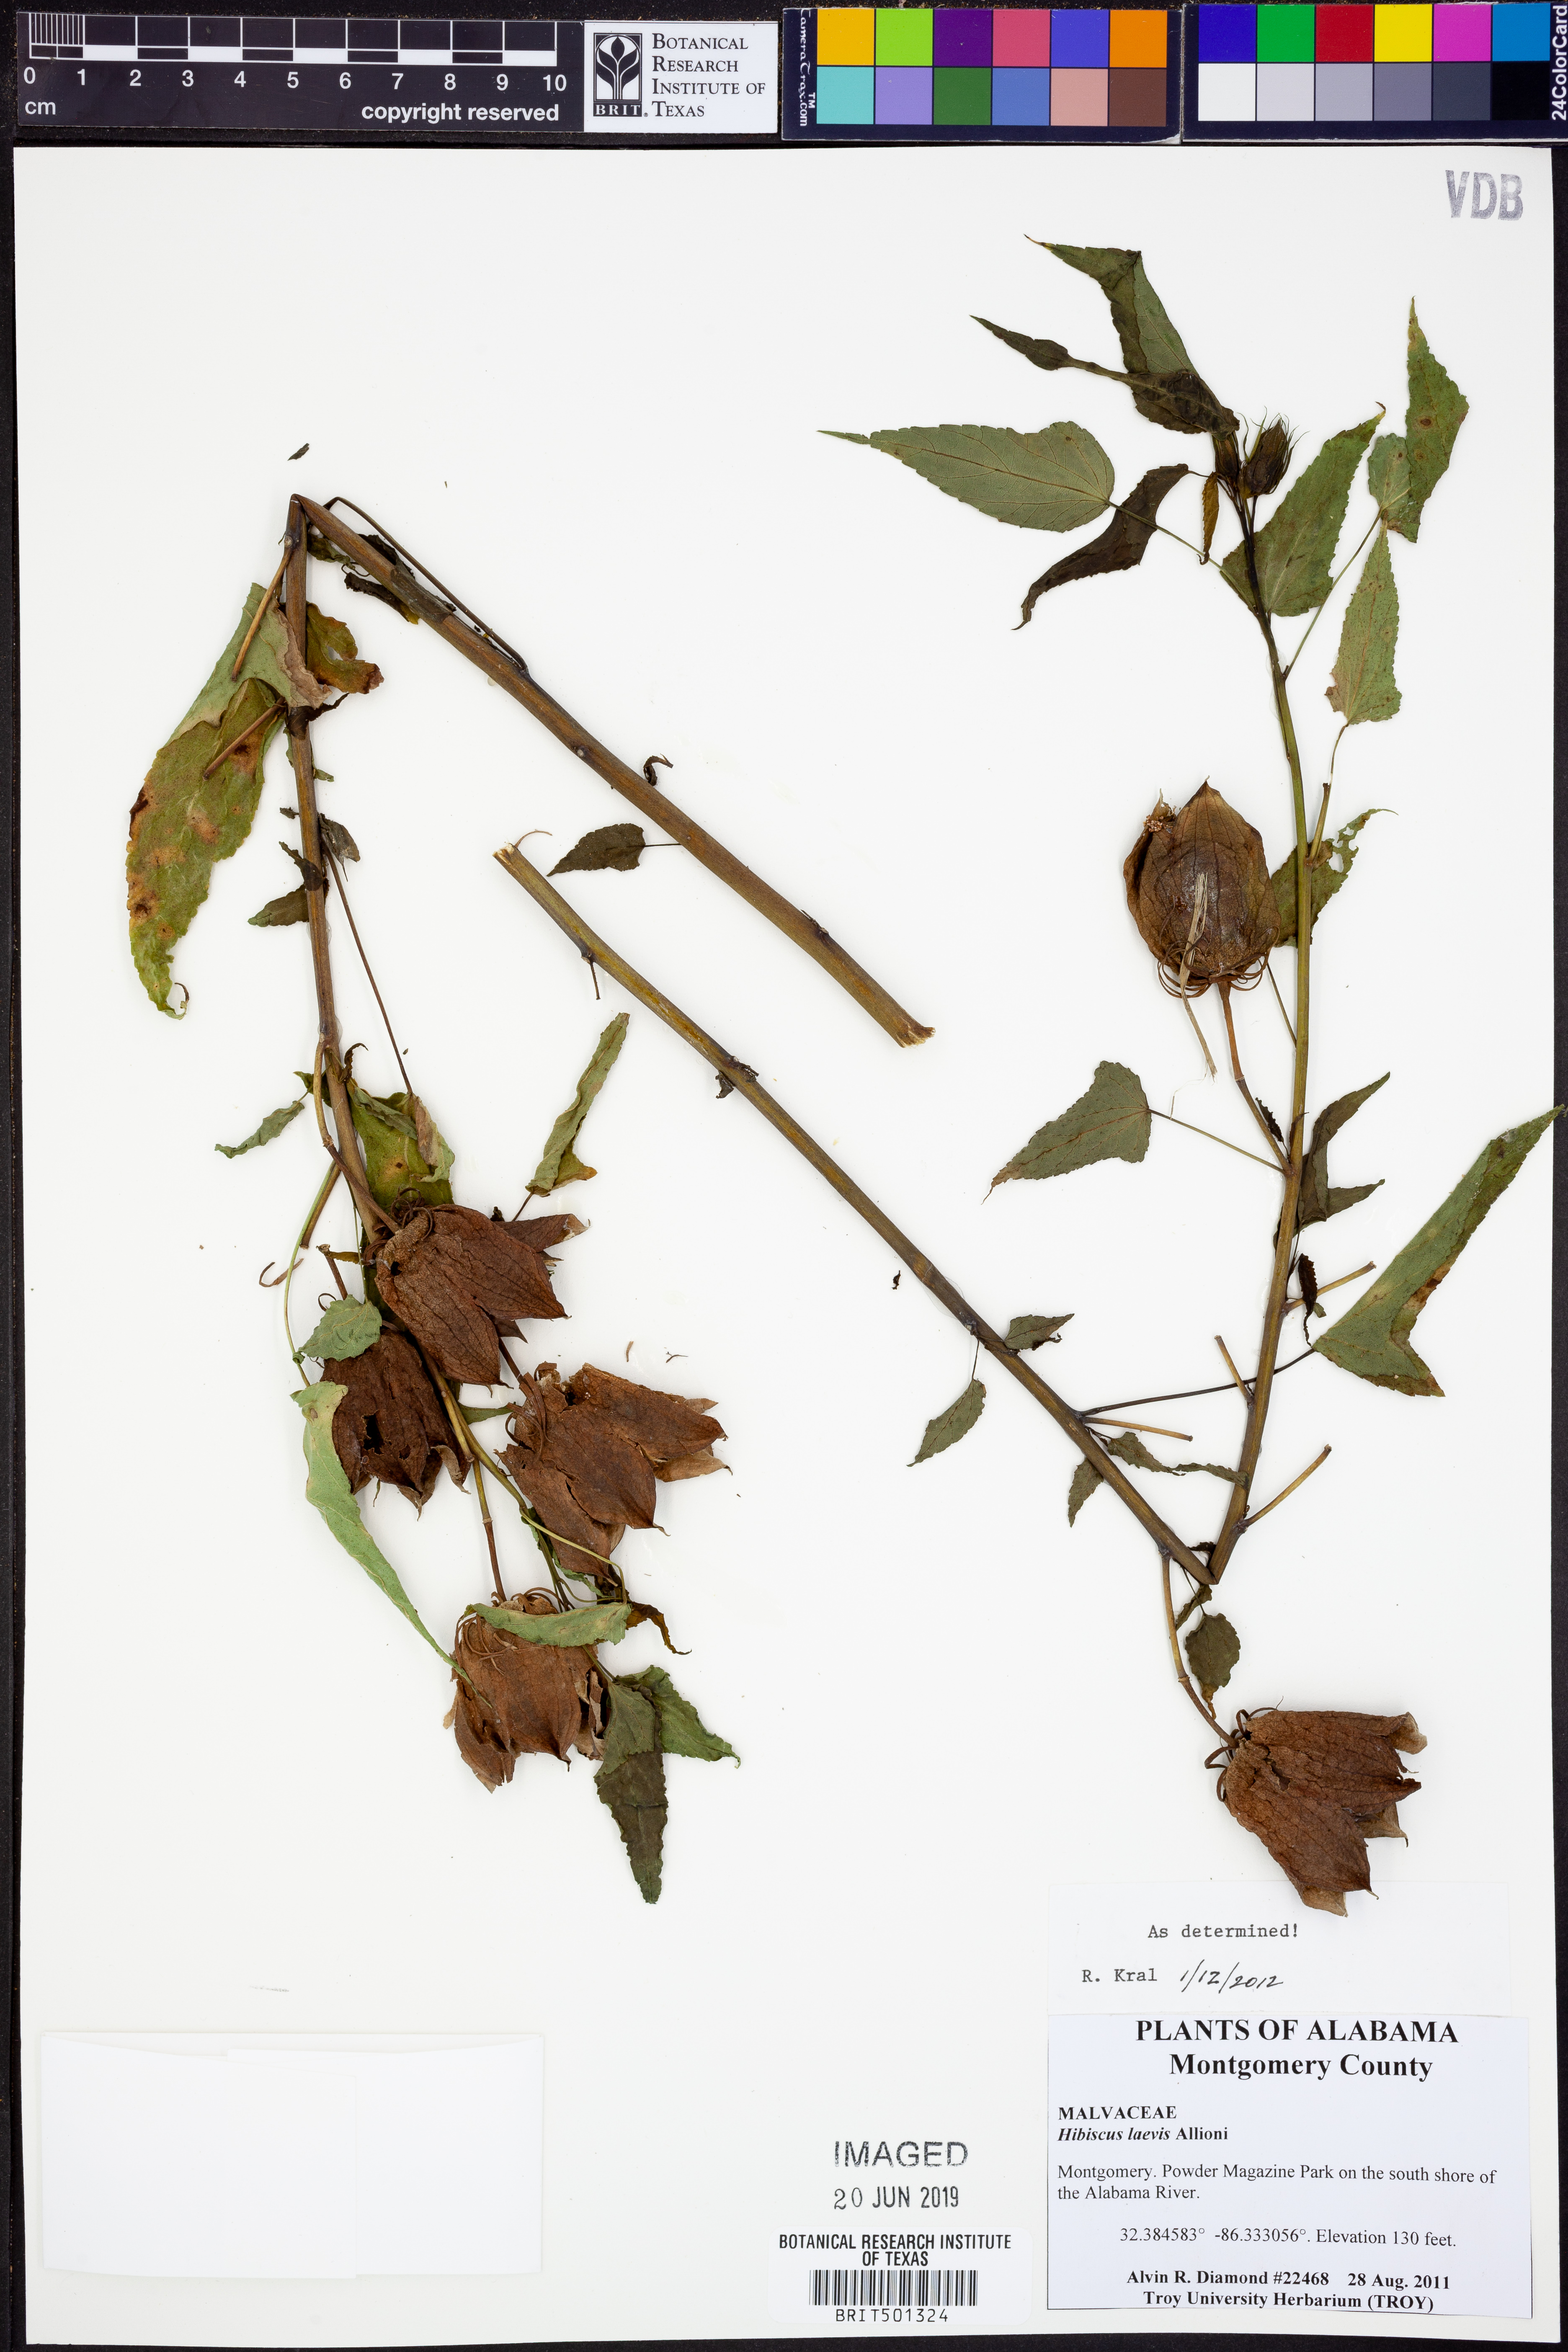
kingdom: Plantae
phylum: Tracheophyta
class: Magnoliopsida
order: Malvales
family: Malvaceae
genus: Hibiscus
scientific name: Hibiscus laevis
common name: Scarlet rose-mallow
